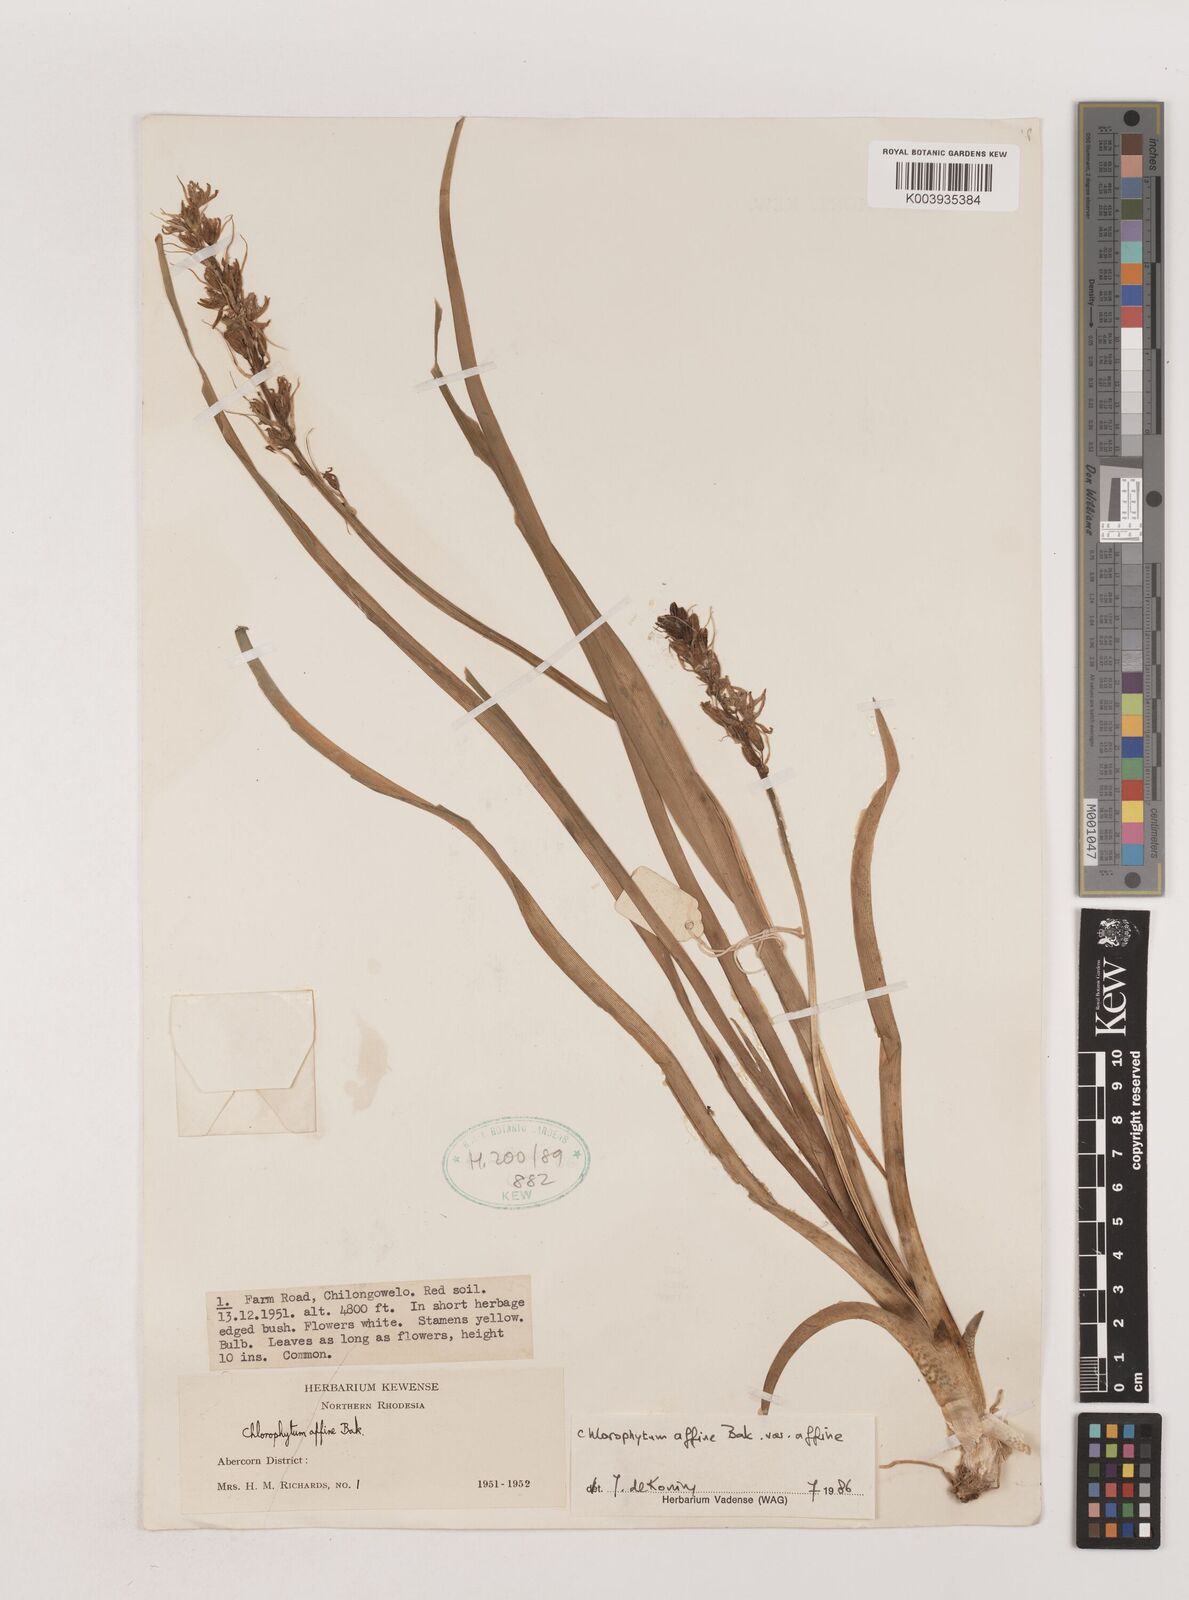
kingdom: Plantae
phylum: Tracheophyta
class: Liliopsida
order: Asparagales
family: Asparagaceae
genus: Chlorophytum
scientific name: Chlorophytum affine
